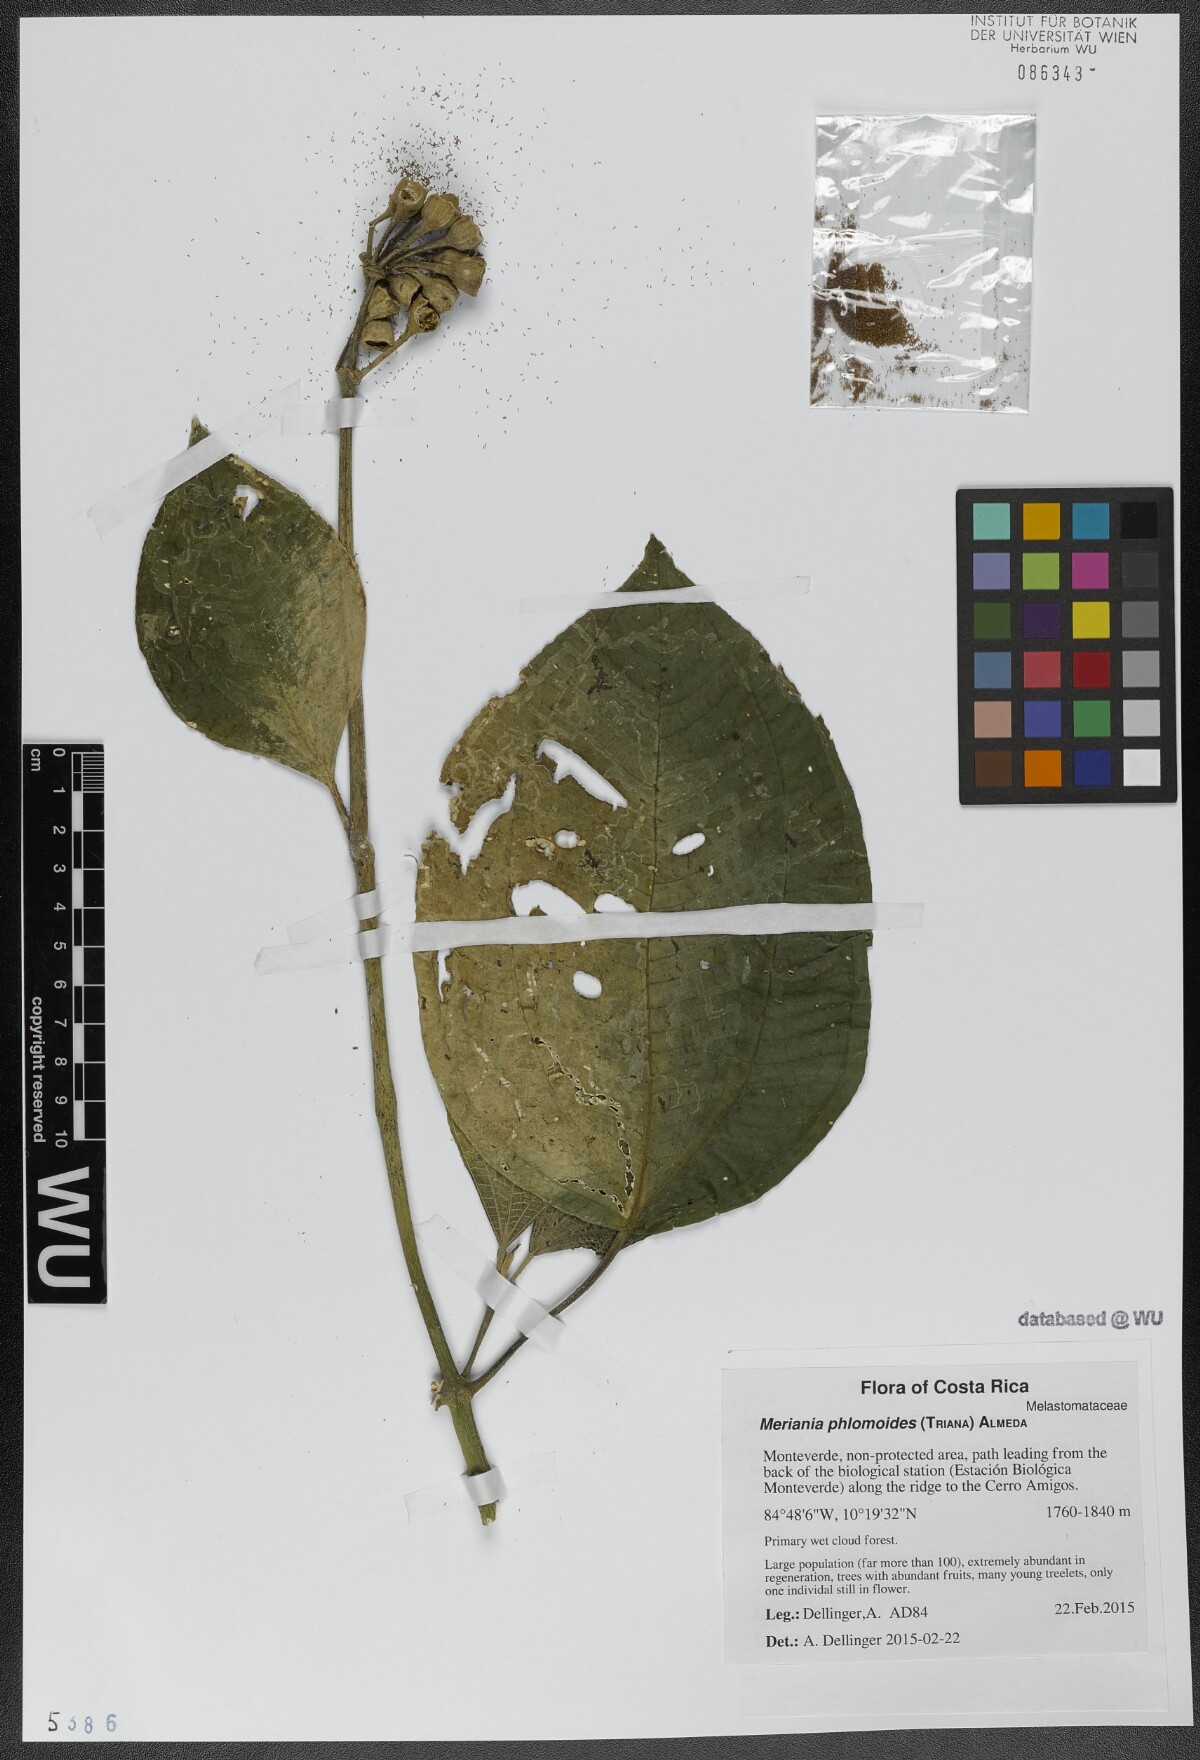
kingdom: Plantae
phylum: Tracheophyta
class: Magnoliopsida
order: Myrtales
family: Melastomataceae
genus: Meriania
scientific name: Meriania phlomoides
